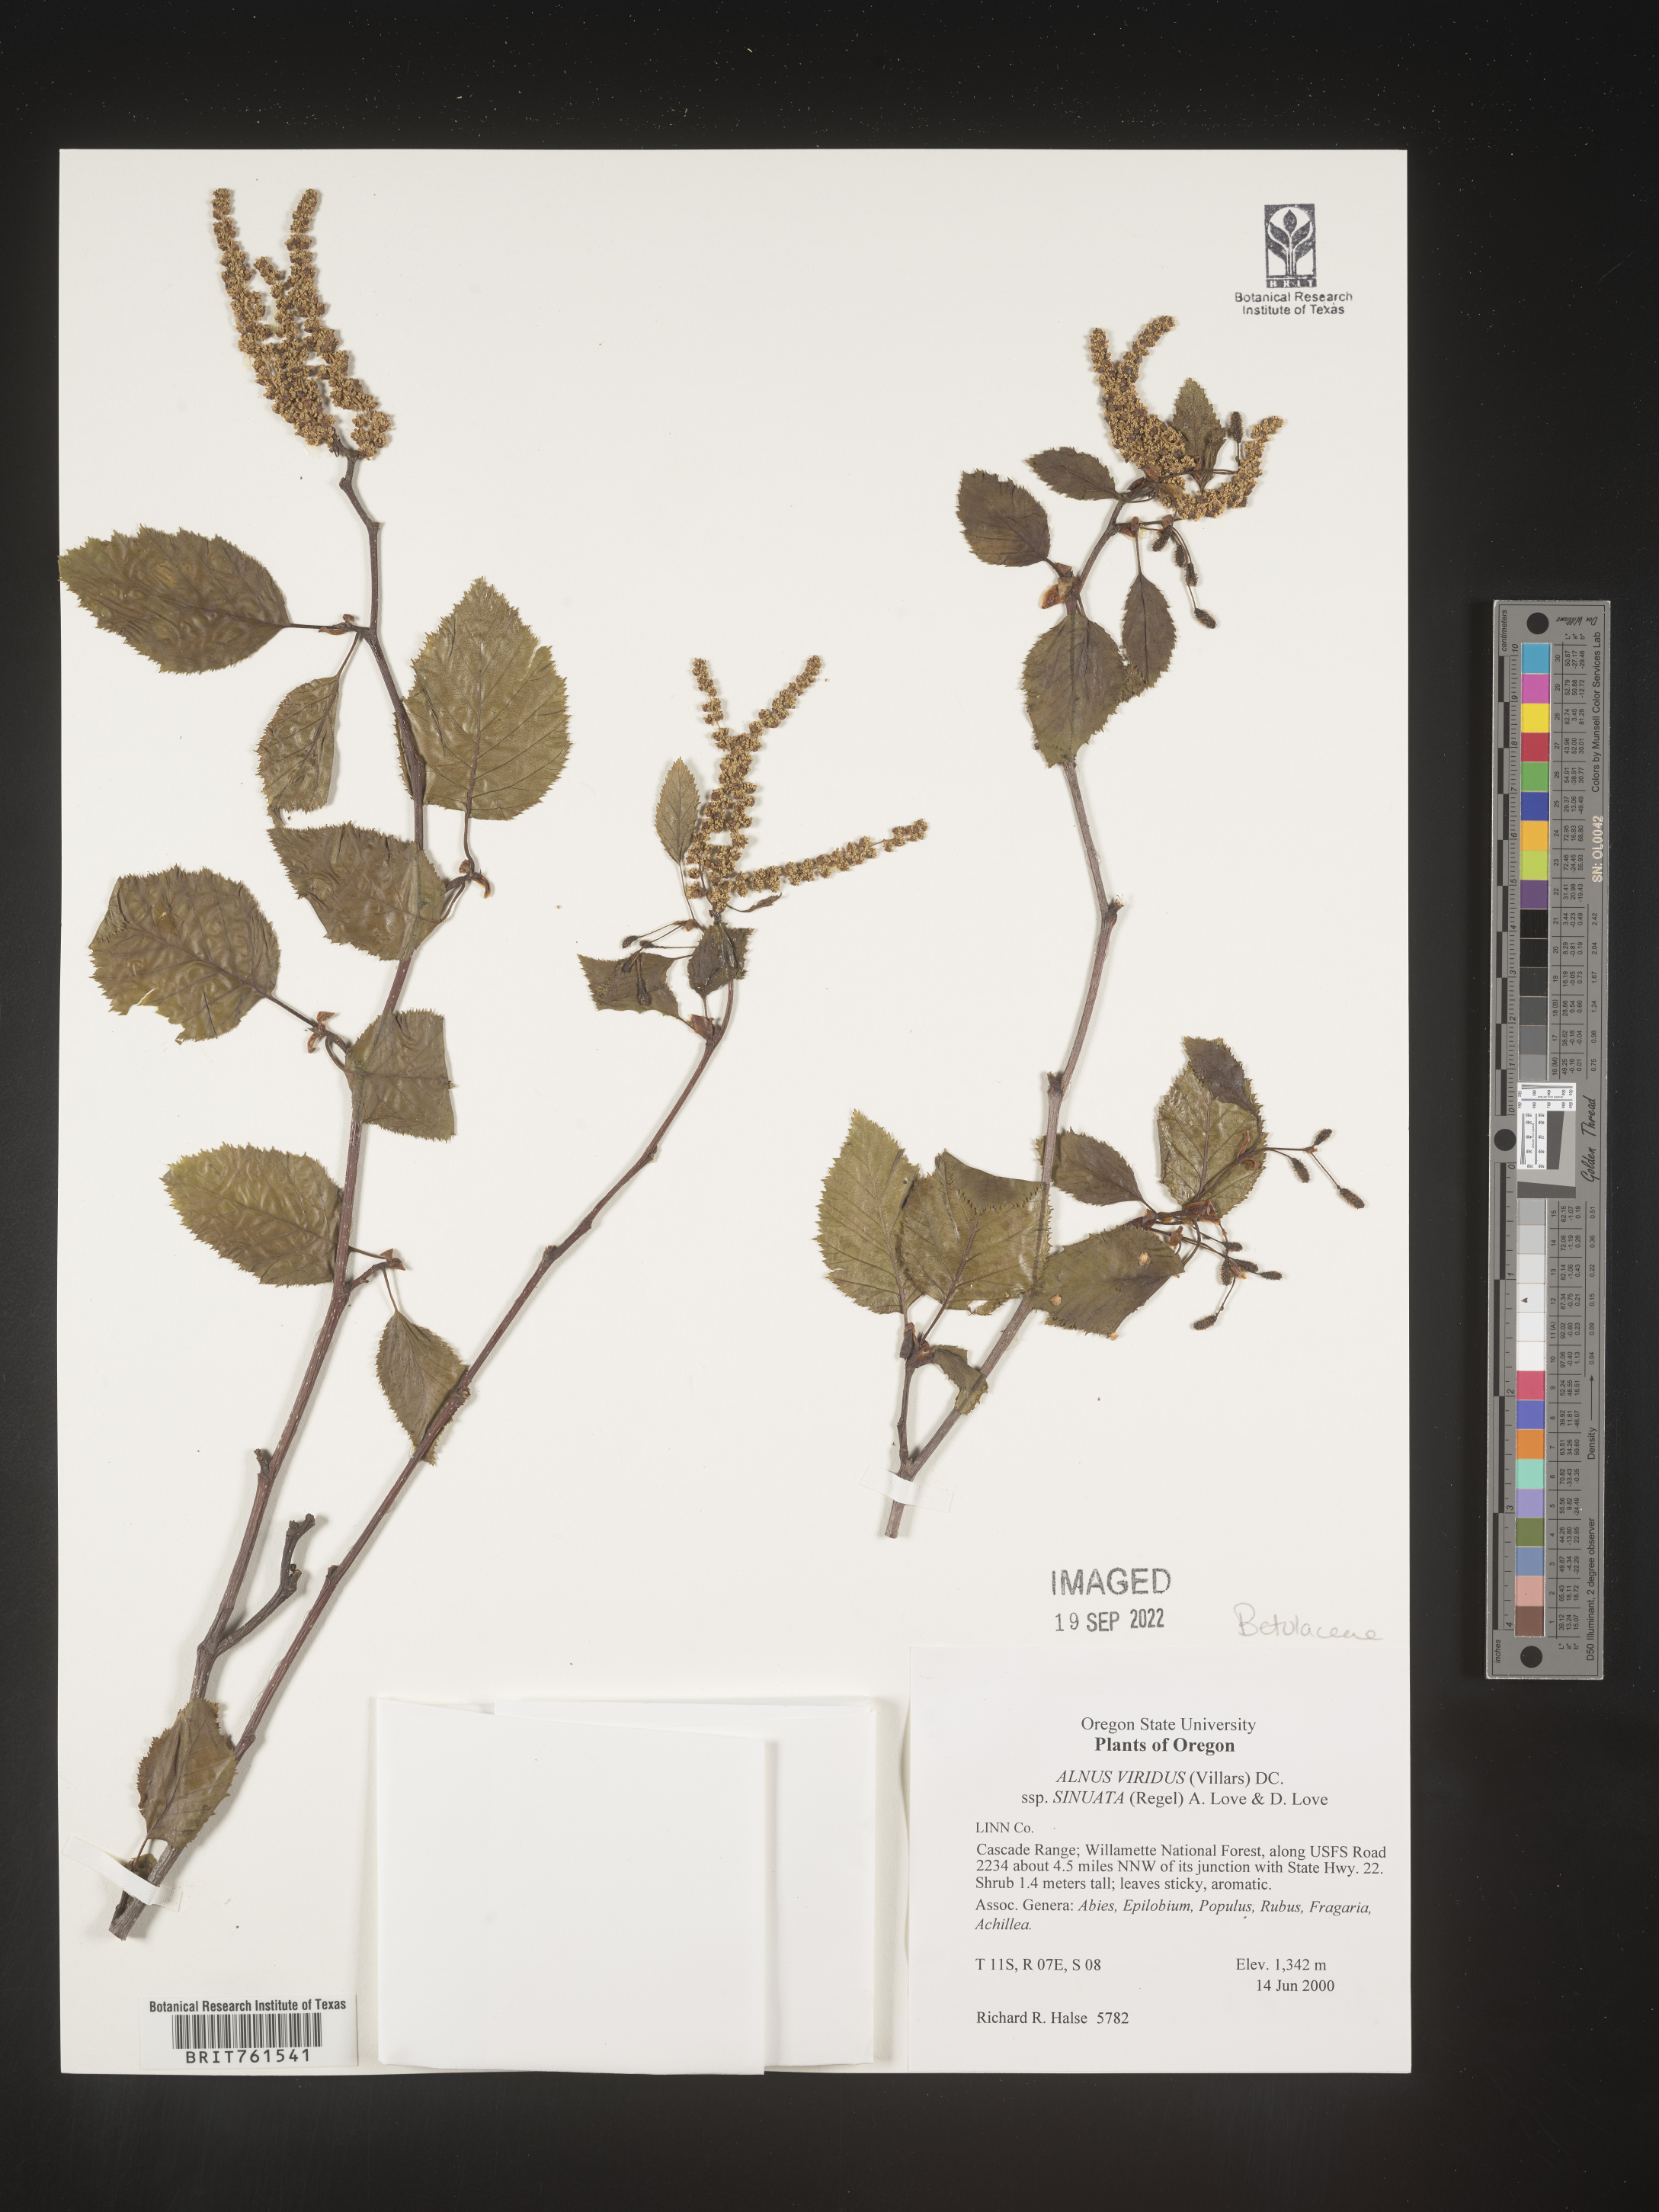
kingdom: Plantae
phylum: Tracheophyta
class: Magnoliopsida
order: Fagales
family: Betulaceae
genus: Alnus
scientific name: Alnus alnobetula
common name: Green alder
